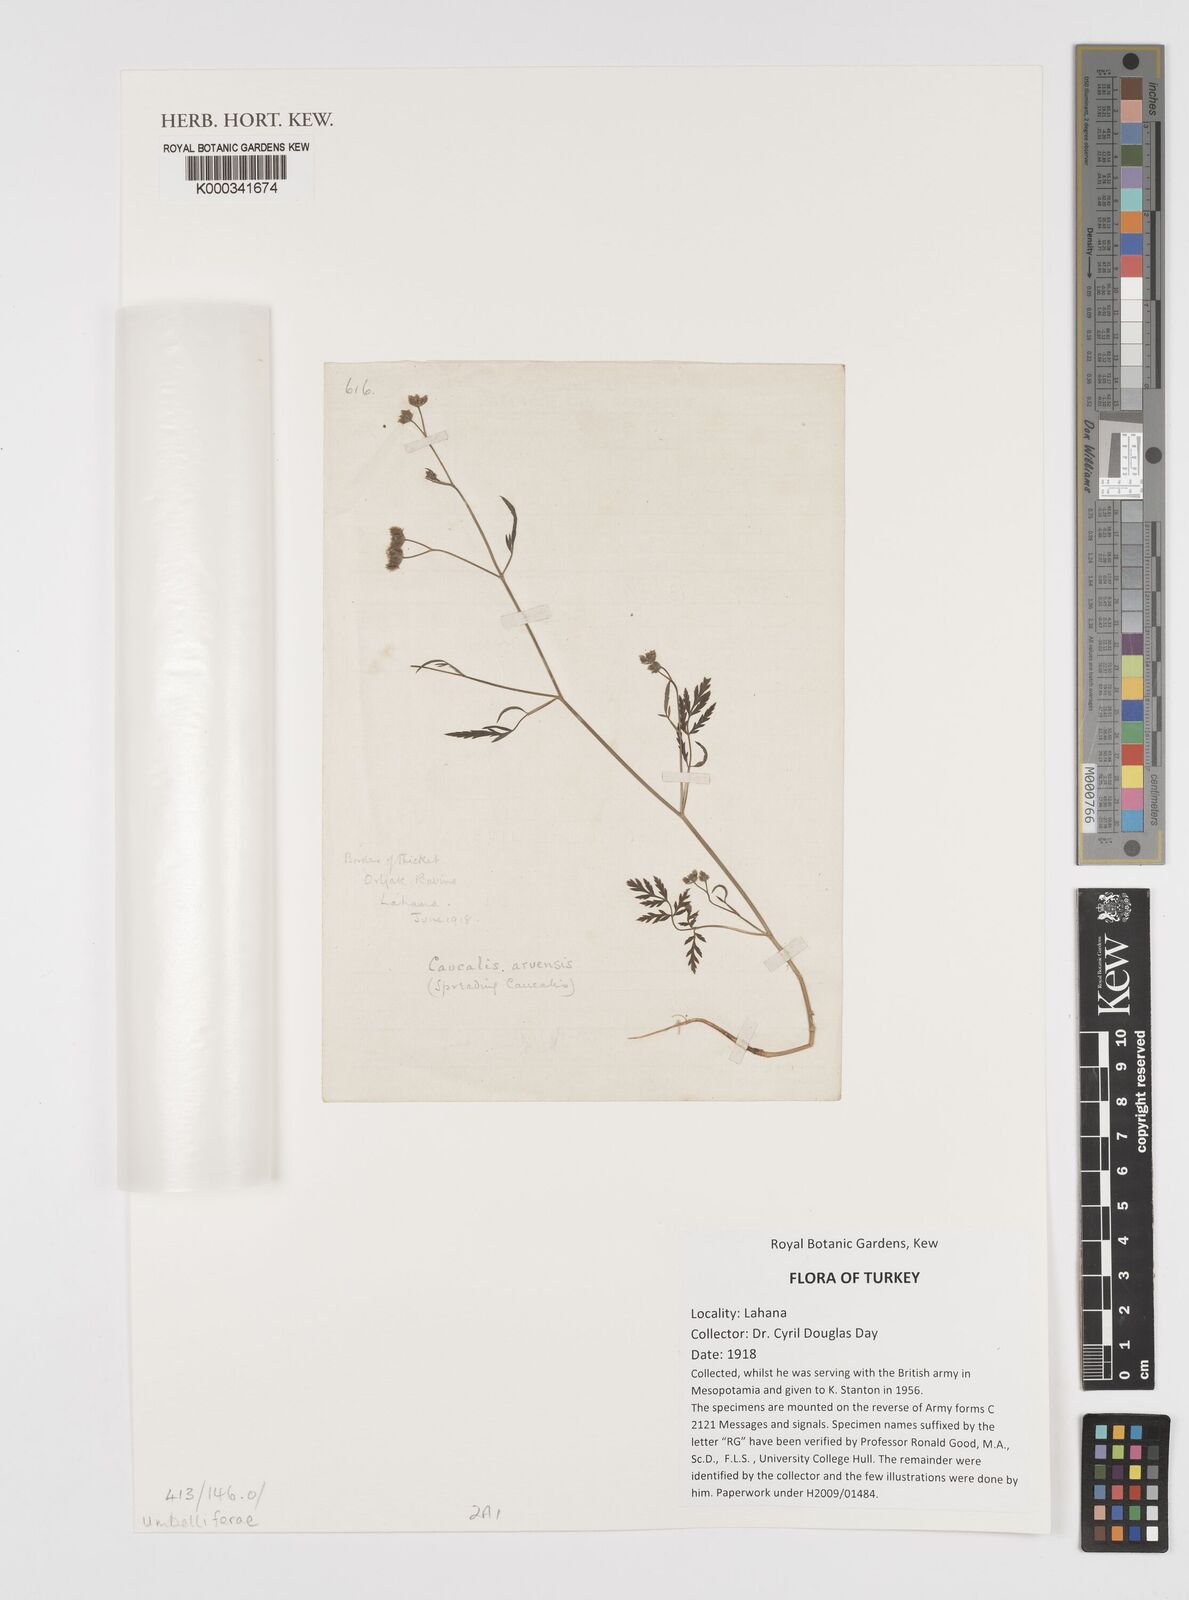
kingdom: Plantae
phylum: Tracheophyta
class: Magnoliopsida
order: Apiales
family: Apiaceae
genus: Torilis
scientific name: Torilis arvensis
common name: Spreading hedge-parsley
